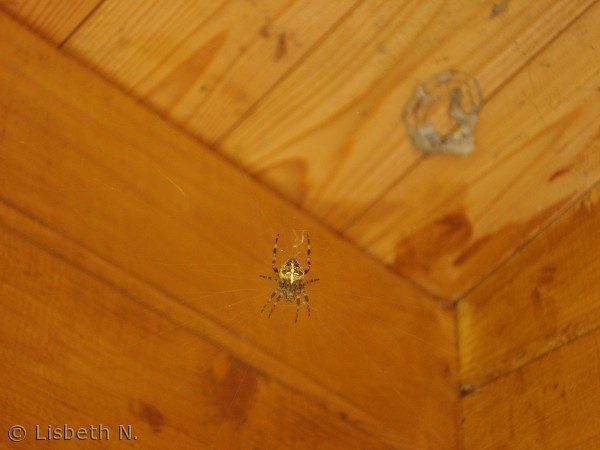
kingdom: Animalia
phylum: Arthropoda
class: Arachnida
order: Araneae
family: Araneidae
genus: Araneus
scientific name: Araneus diadematus
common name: Korsedderkop
